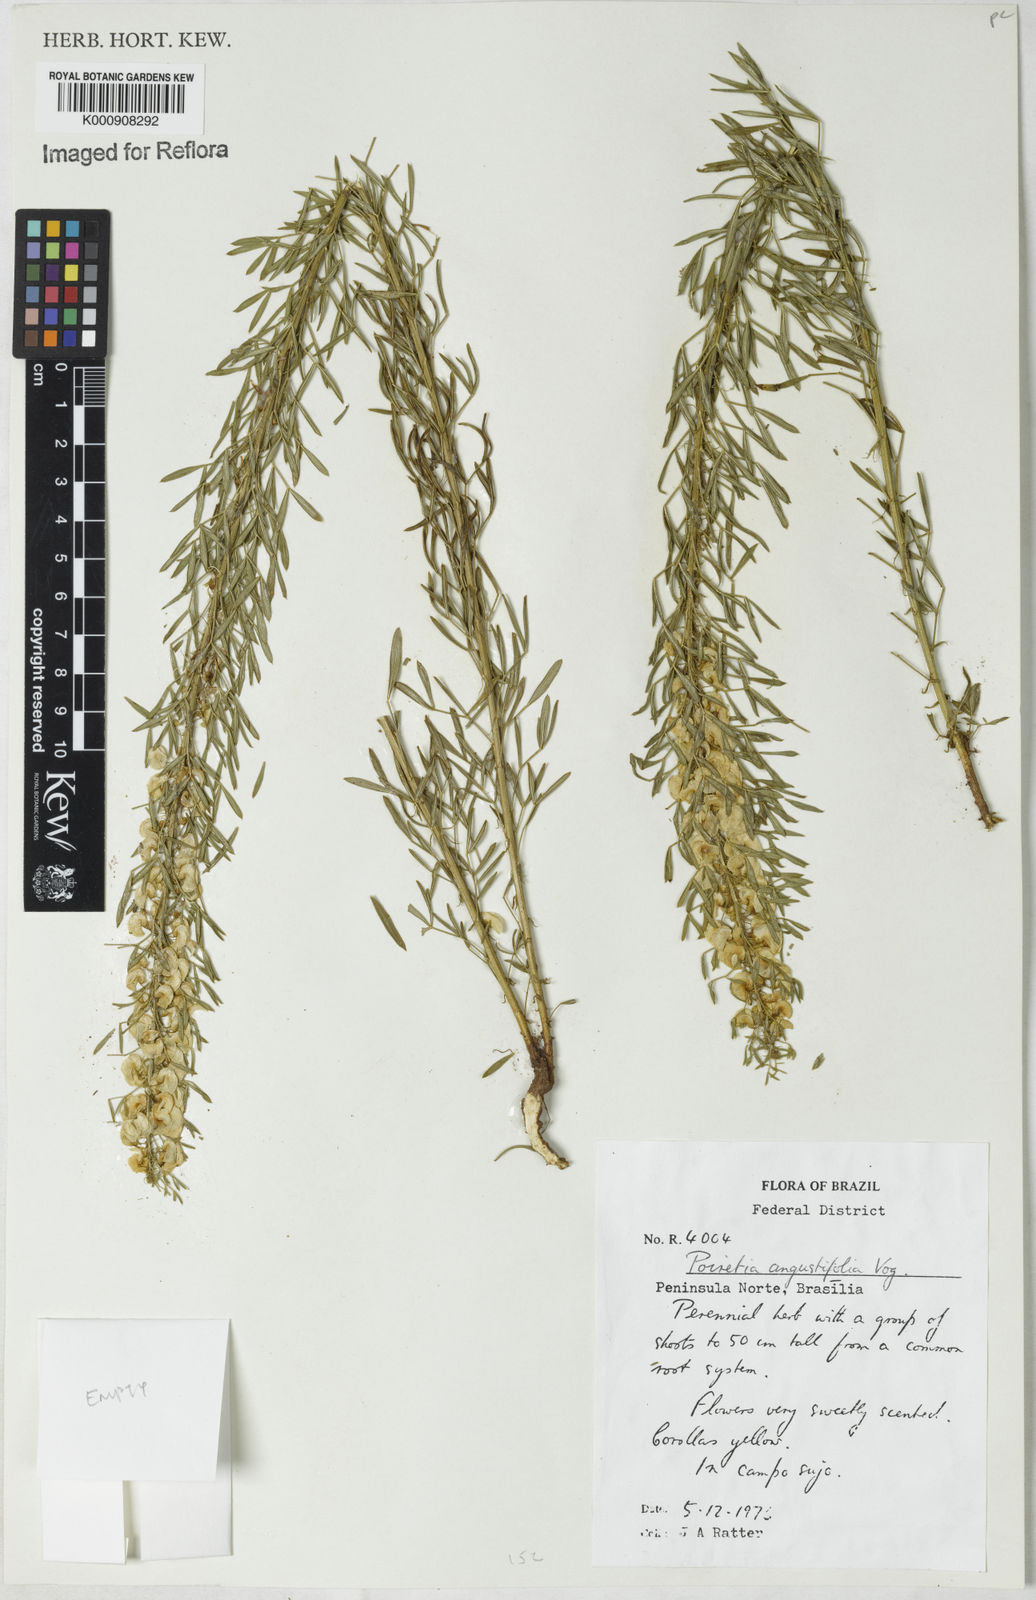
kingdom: Plantae
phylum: Tracheophyta
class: Magnoliopsida
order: Fabales
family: Fabaceae
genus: Poiretia
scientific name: Poiretia angustifolia
